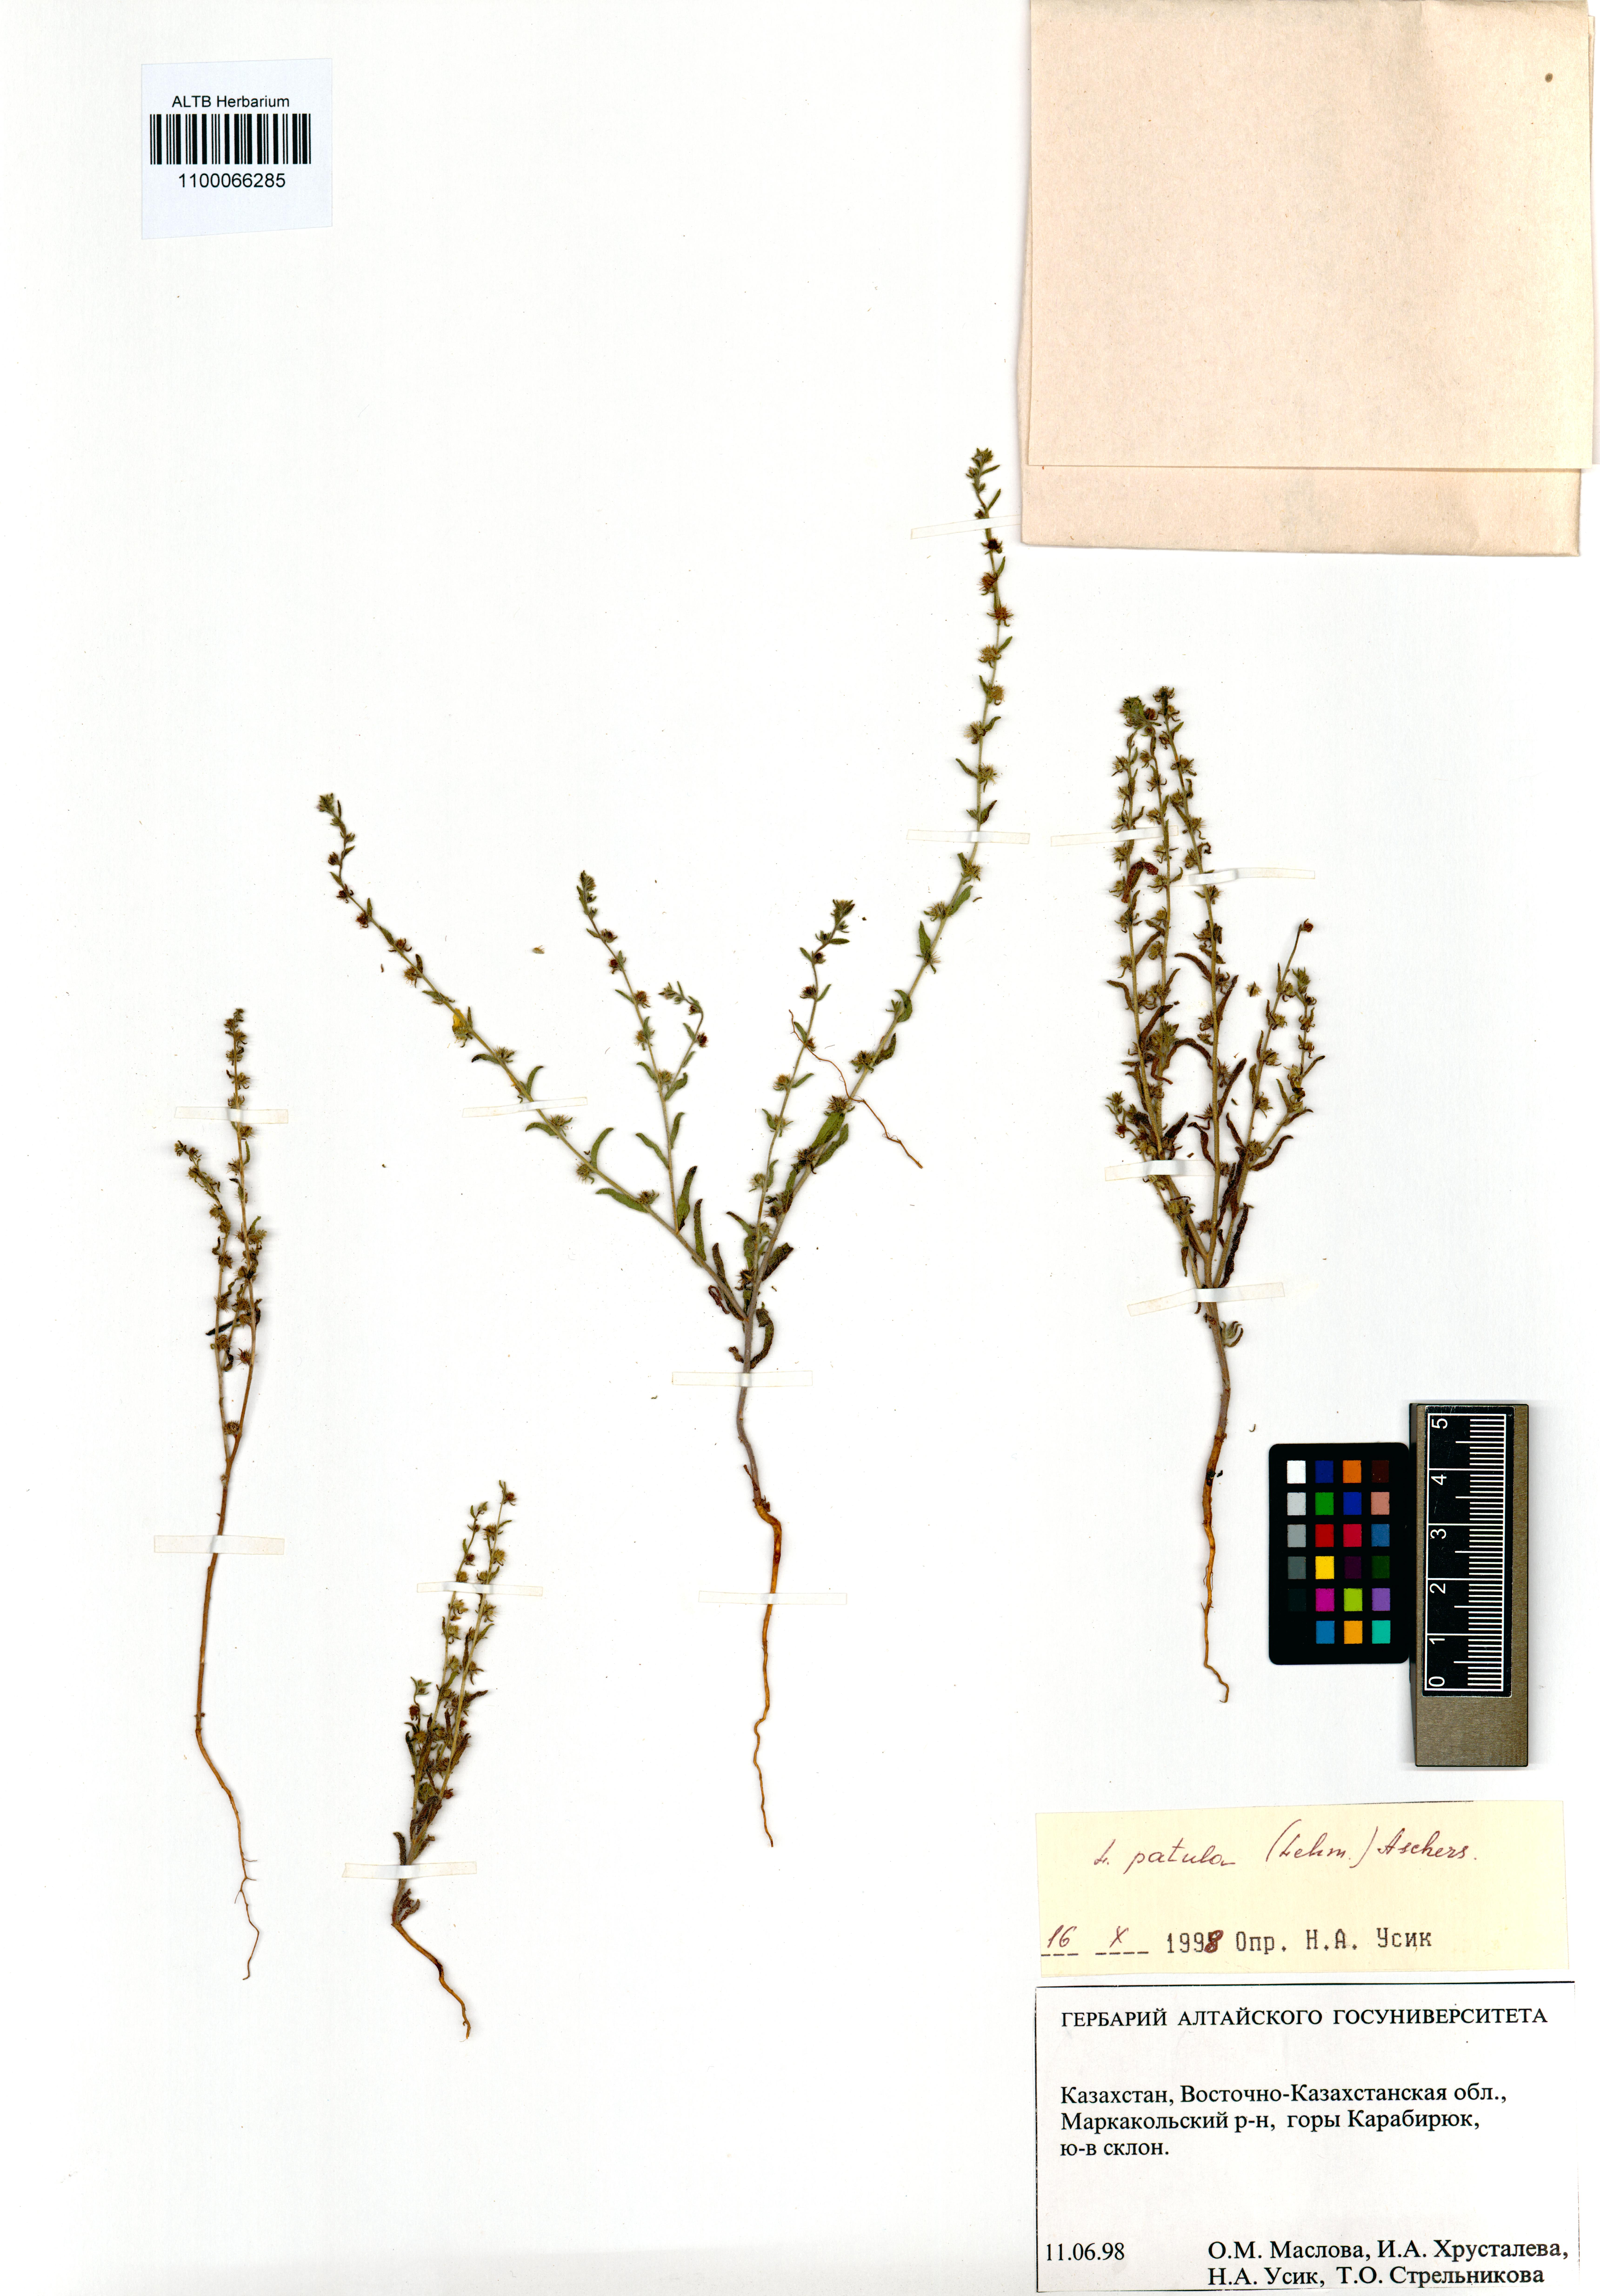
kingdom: Plantae
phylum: Tracheophyta
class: Magnoliopsida
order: Boraginales
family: Boraginaceae
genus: Lappula
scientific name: Lappula patula
